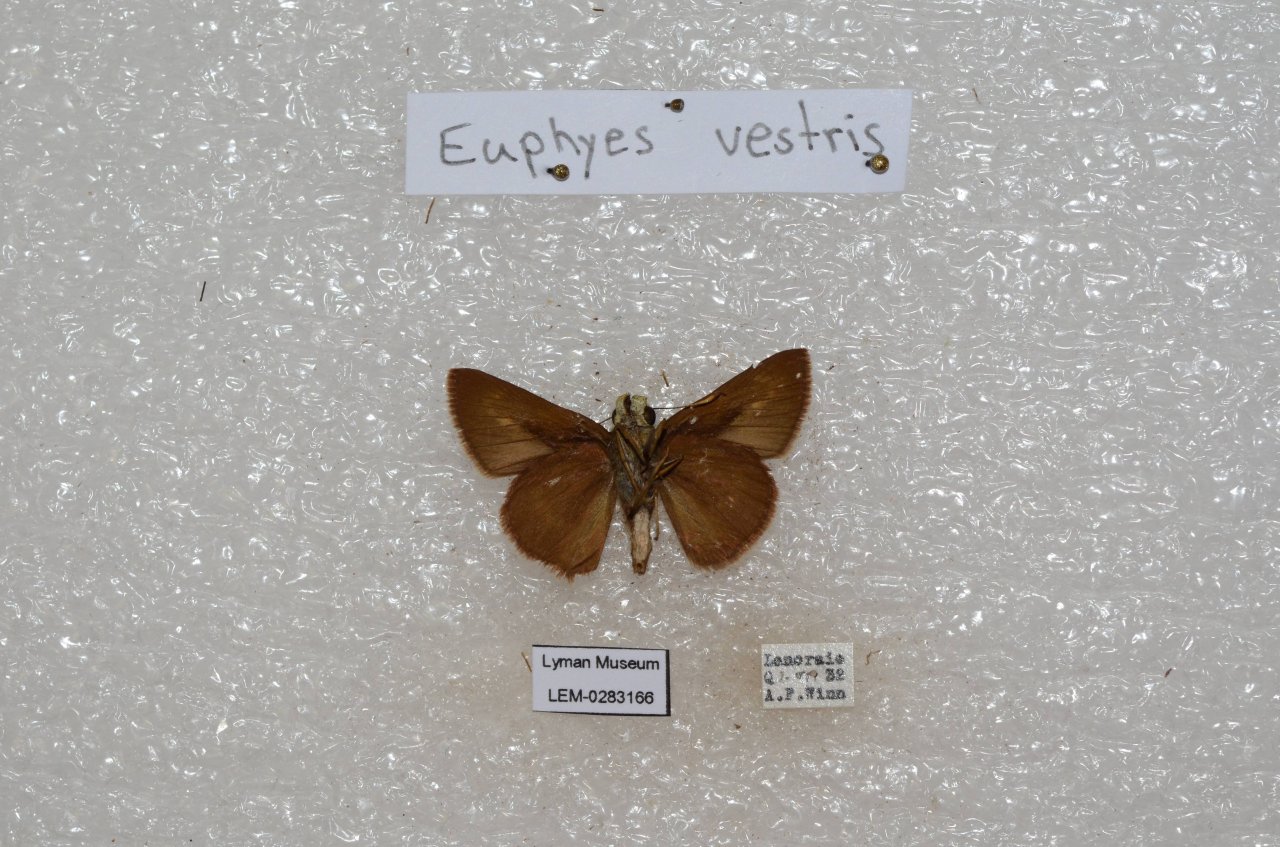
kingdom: Animalia
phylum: Arthropoda
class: Insecta
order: Lepidoptera
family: Hesperiidae
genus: Euphyes
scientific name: Euphyes vestris
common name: Dun Skipper
